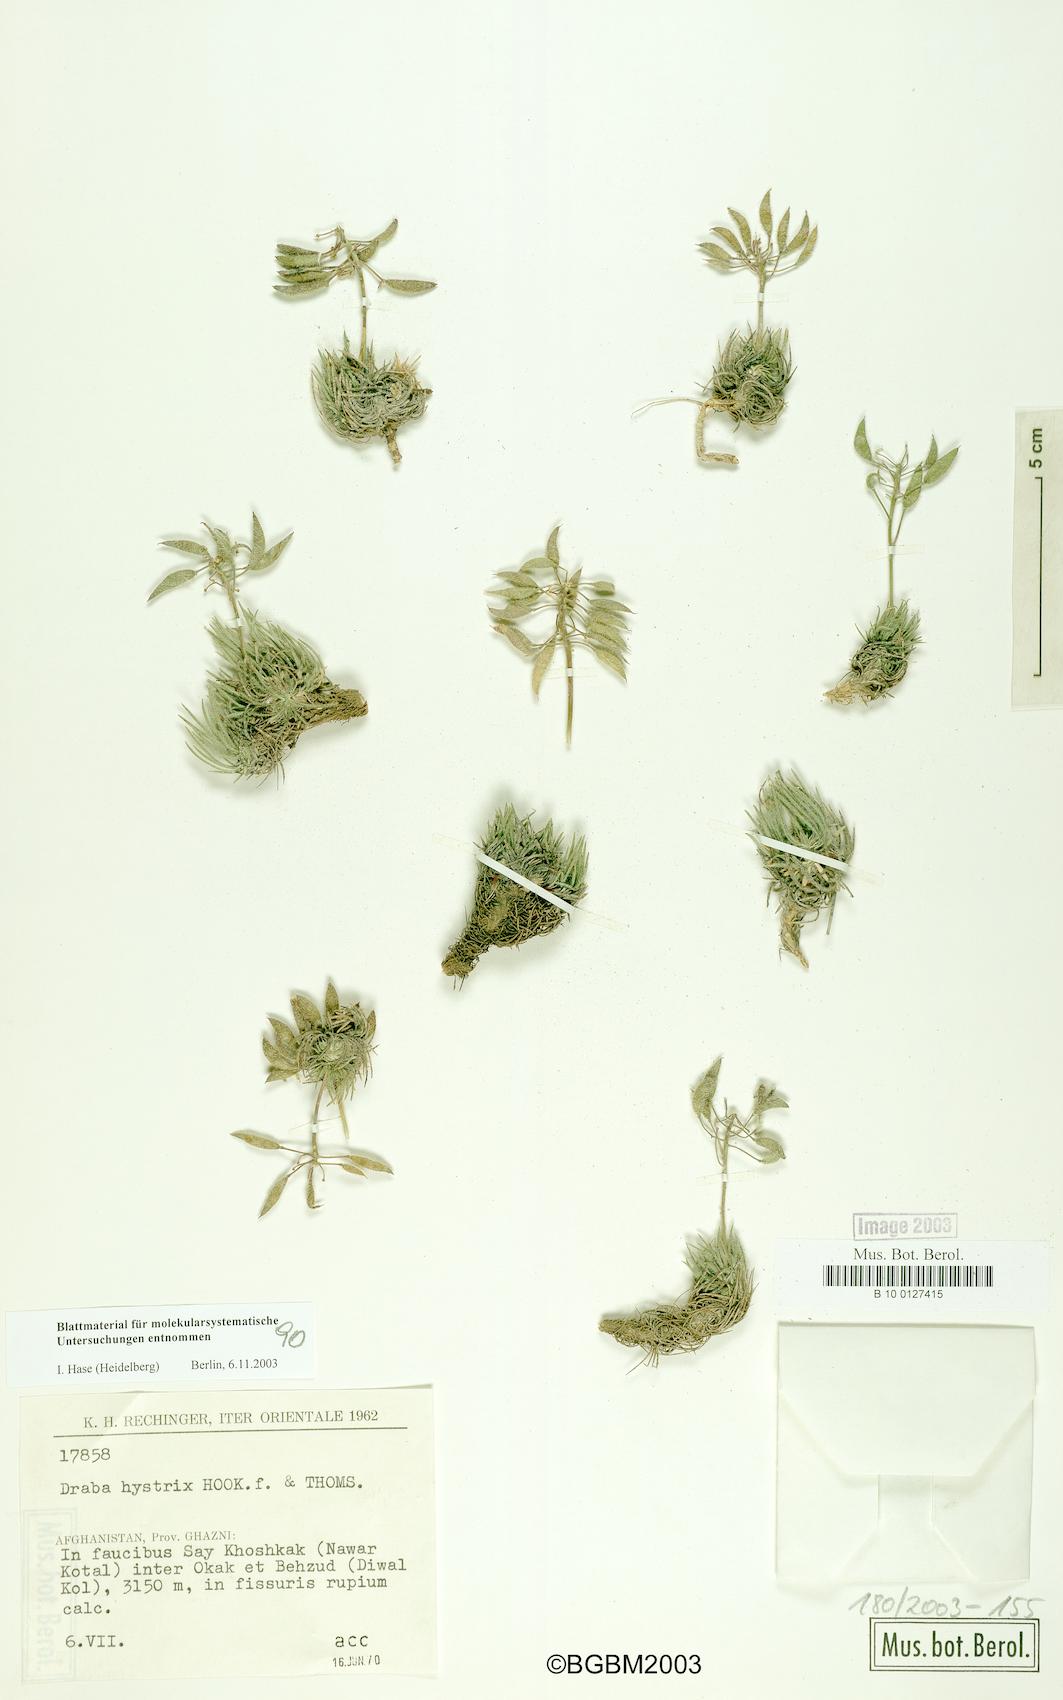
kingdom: Plantae
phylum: Tracheophyta
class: Magnoliopsida
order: Brassicales
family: Brassicaceae
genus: Pseudodraba
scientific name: Pseudodraba hystrix
